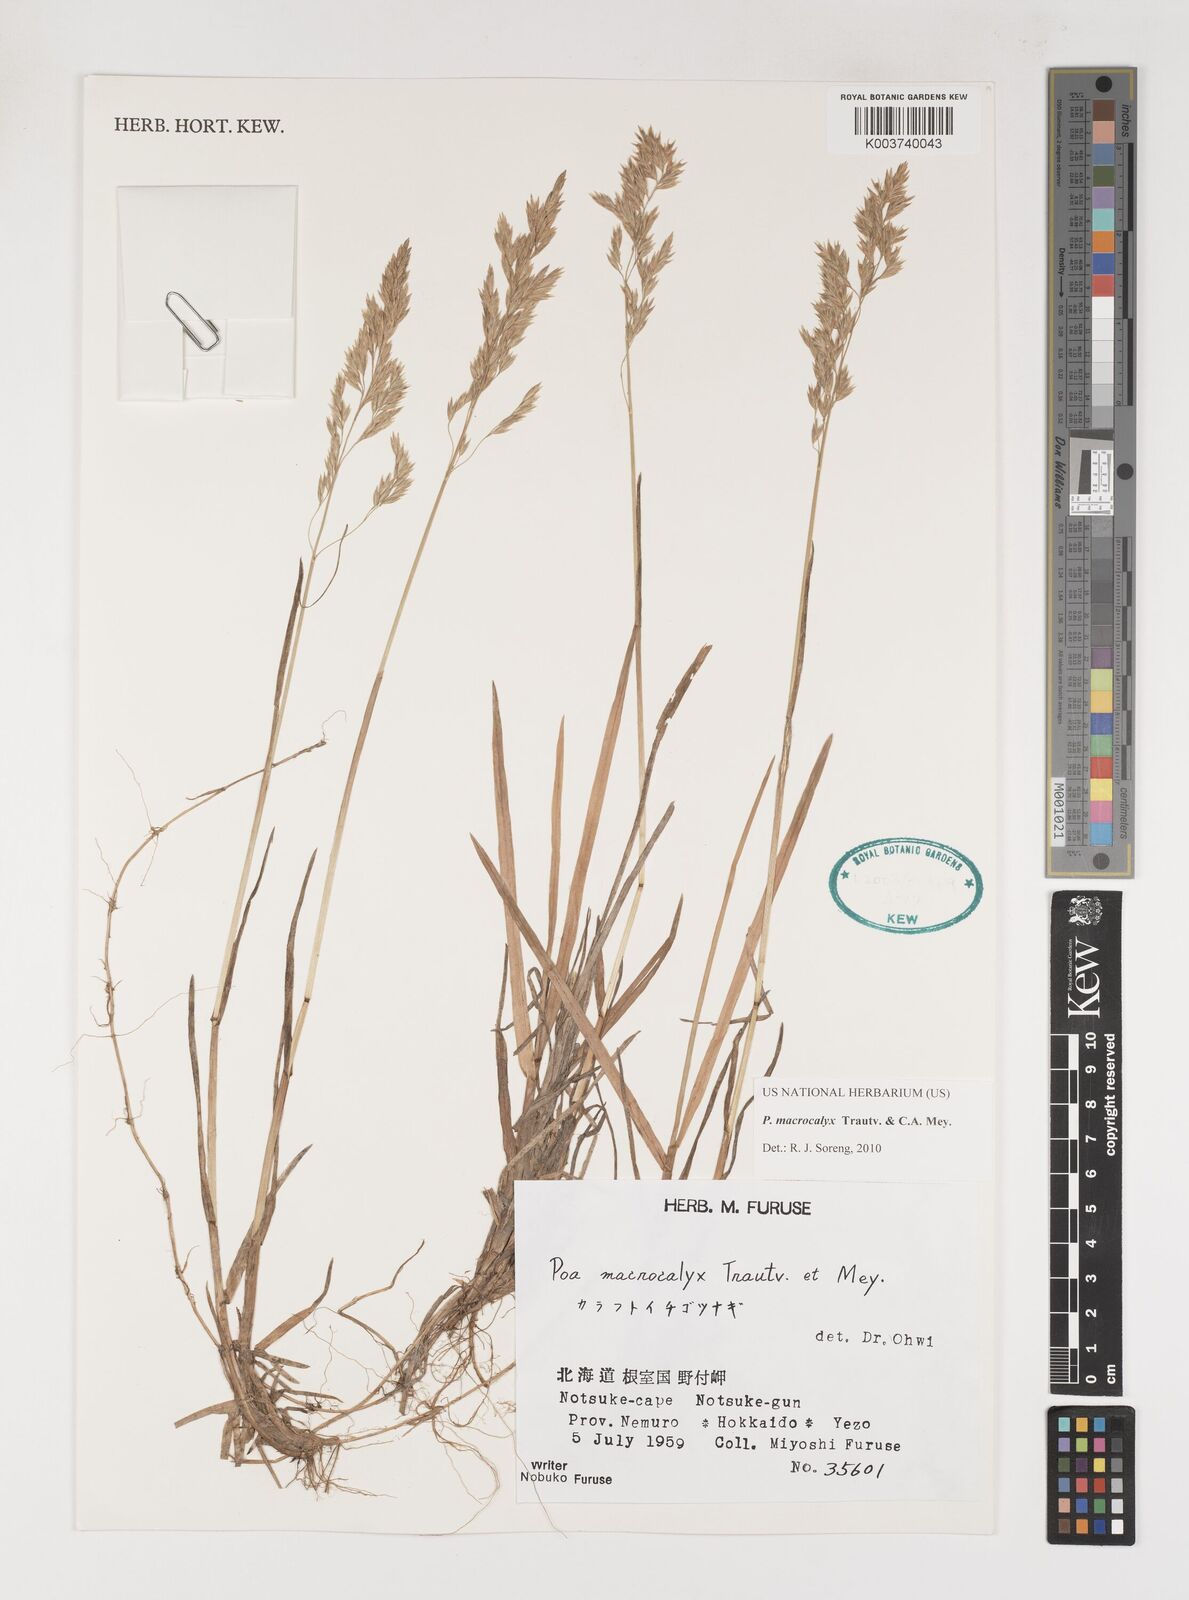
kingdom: Plantae
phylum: Tracheophyta
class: Liliopsida
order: Poales
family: Poaceae
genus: Poa
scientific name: Poa macrocalyx
